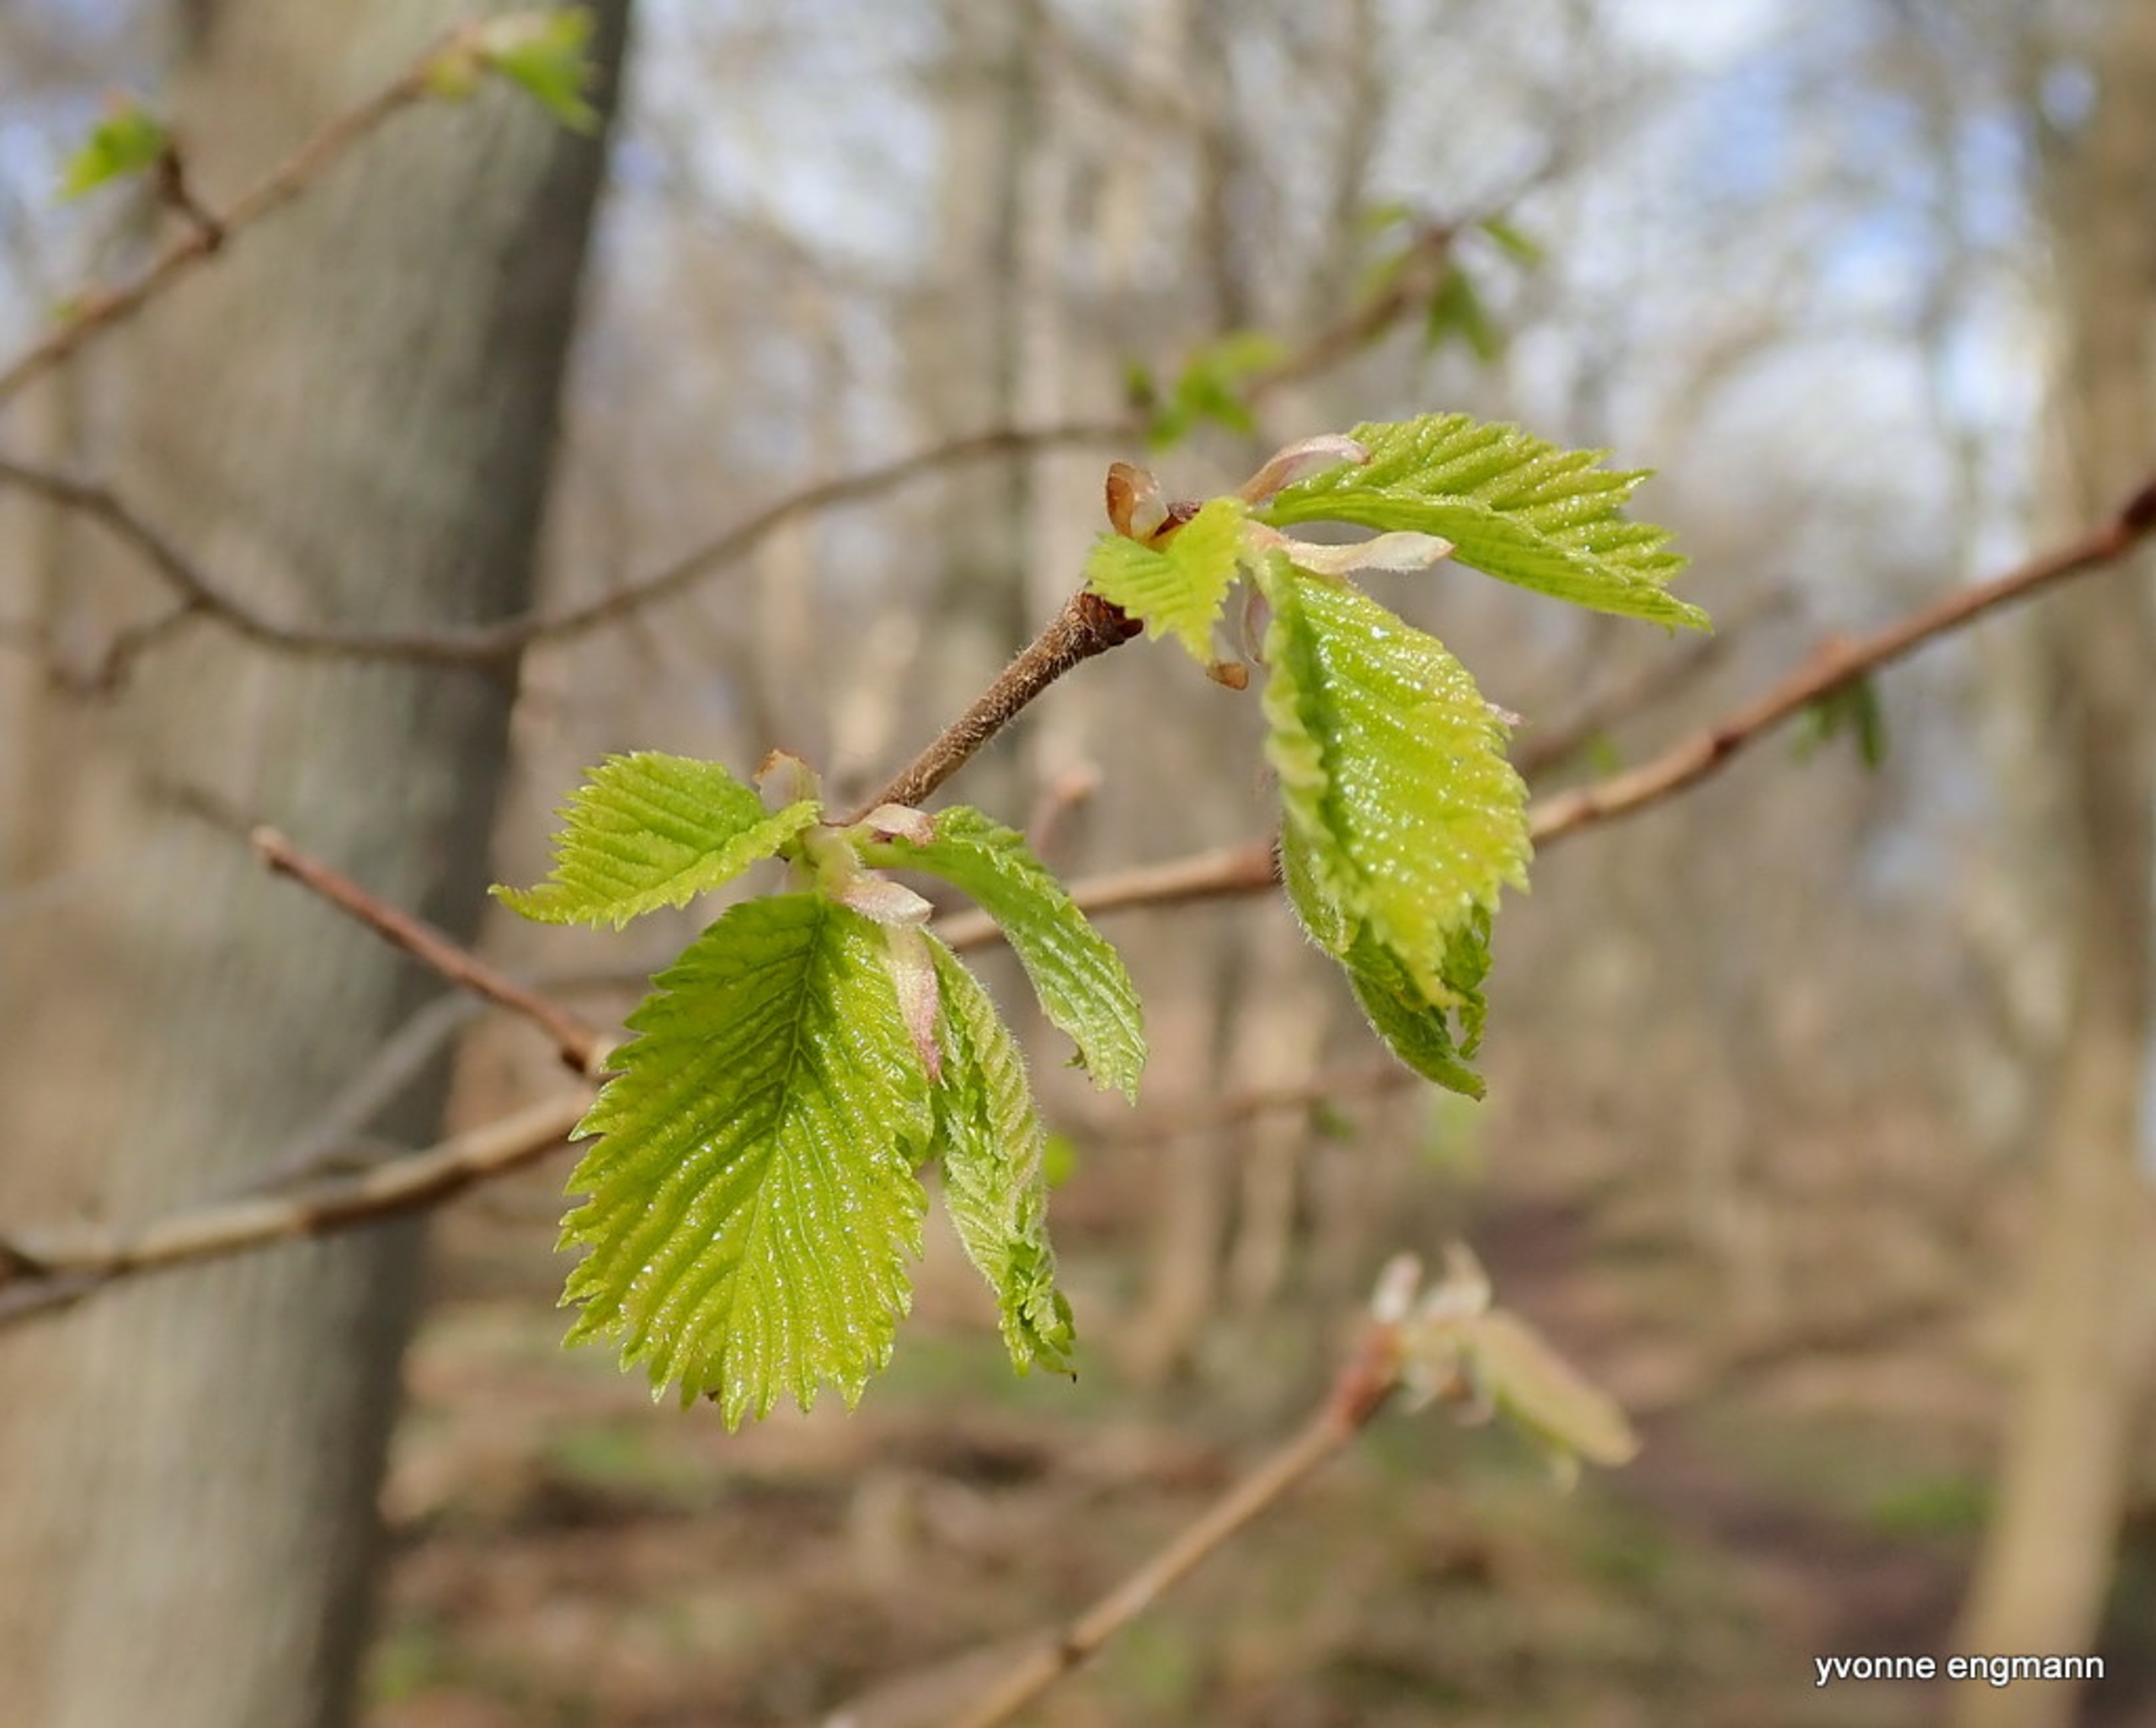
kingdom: Plantae
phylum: Tracheophyta
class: Magnoliopsida
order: Fagales
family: Betulaceae
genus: Carpinus
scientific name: Carpinus betulus
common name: Avnbøg
